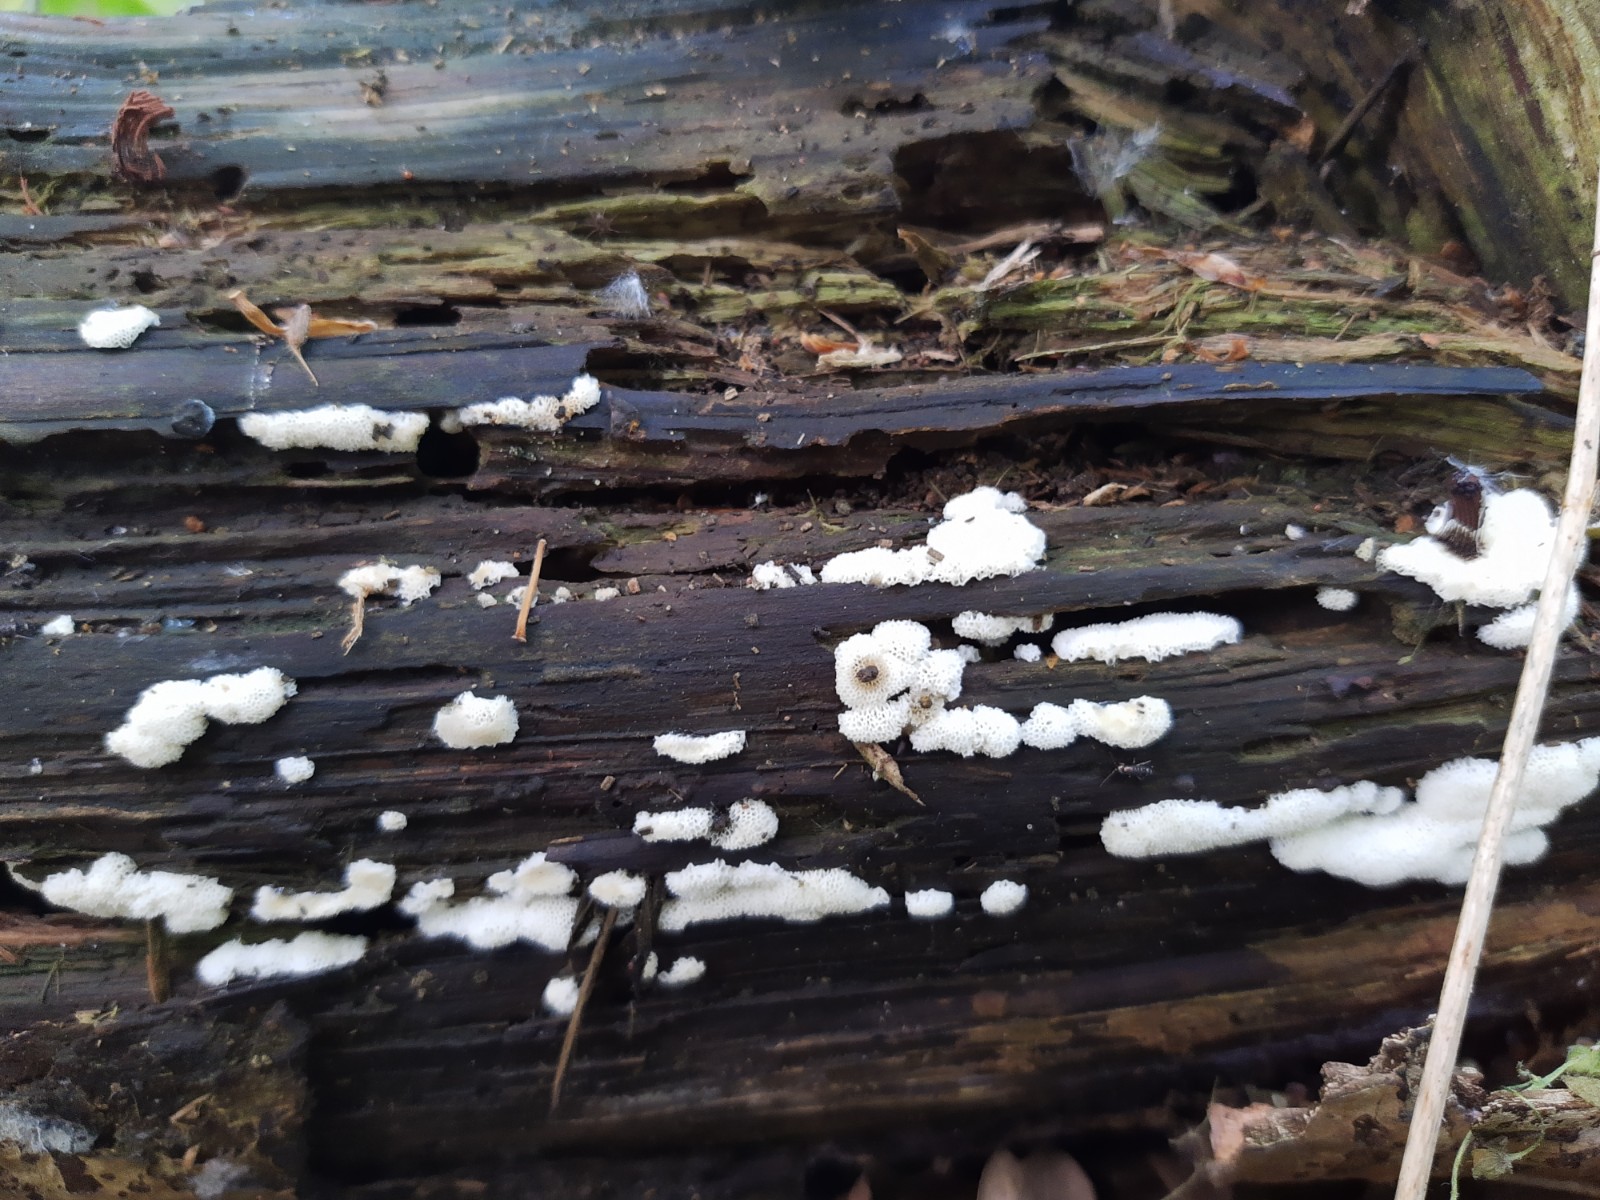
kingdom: Protozoa
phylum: Mycetozoa
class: Protosteliomycetes
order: Ceratiomyxales
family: Ceratiomyxaceae
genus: Ceratiomyxa
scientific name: Ceratiomyxa fruticulosa
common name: Honeycomb coral slime mold
